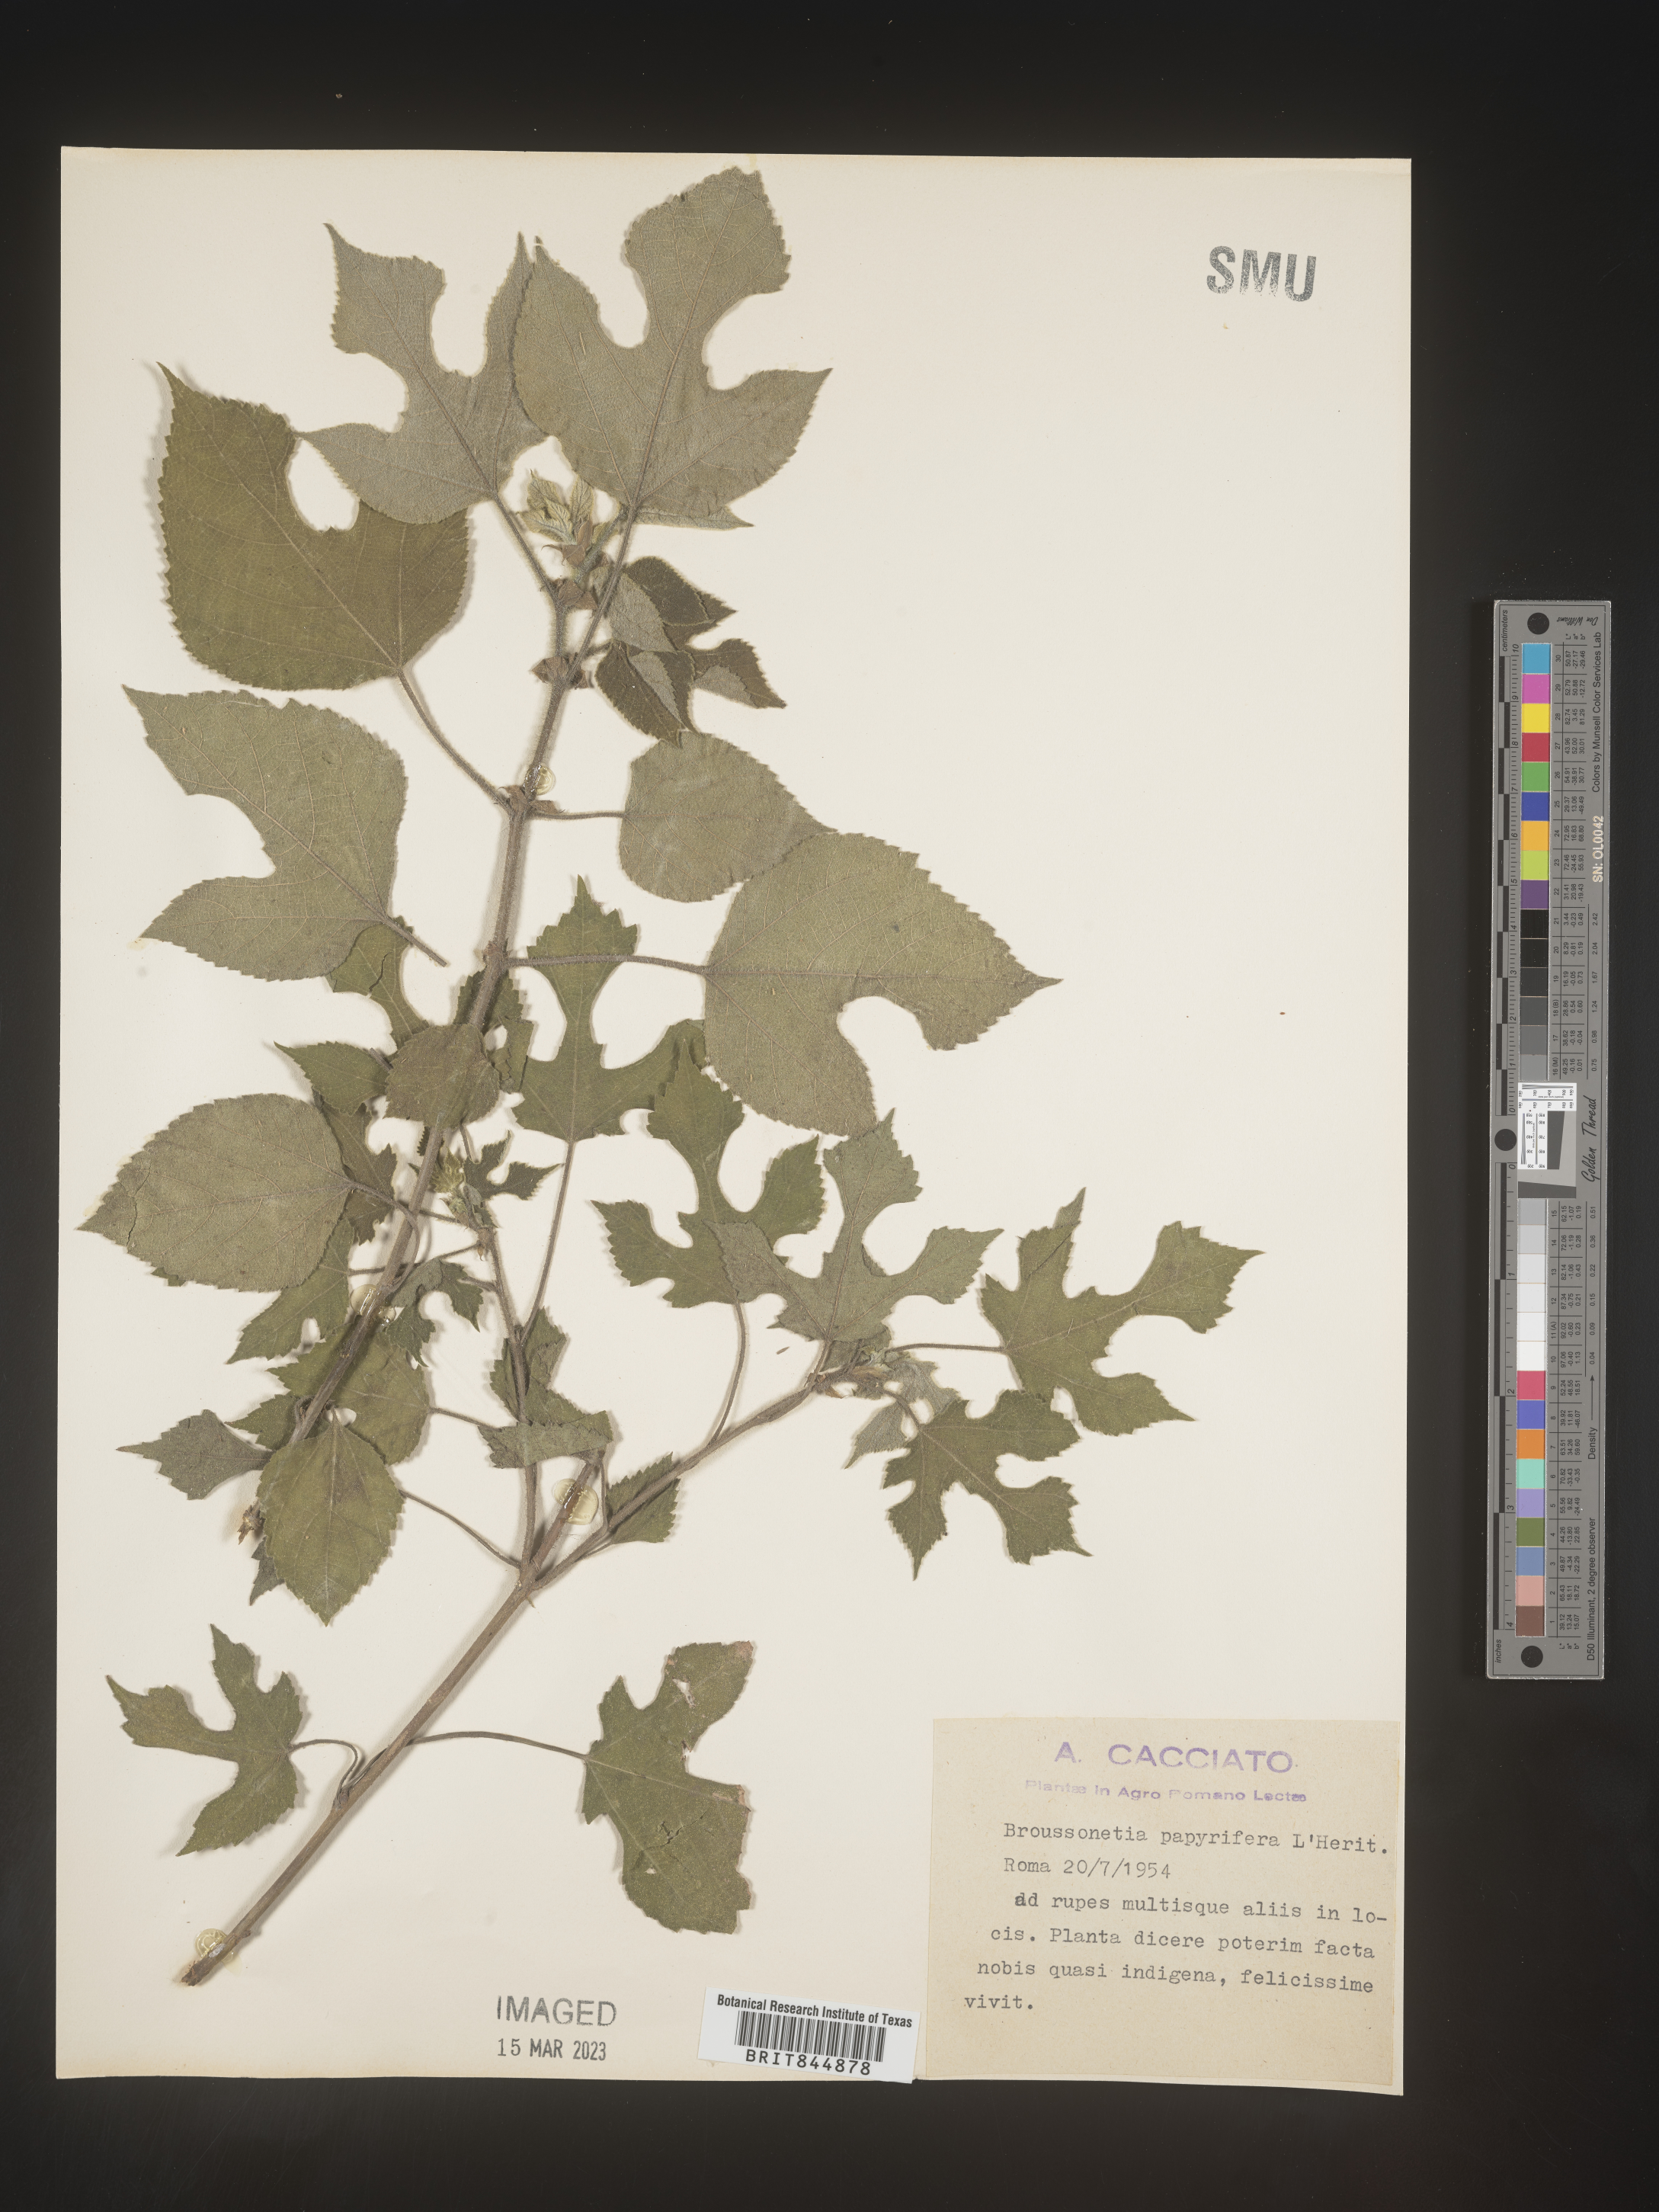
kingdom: Plantae
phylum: Tracheophyta
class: Magnoliopsida
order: Rosales
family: Moraceae
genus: Broussonetia
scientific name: Broussonetia
